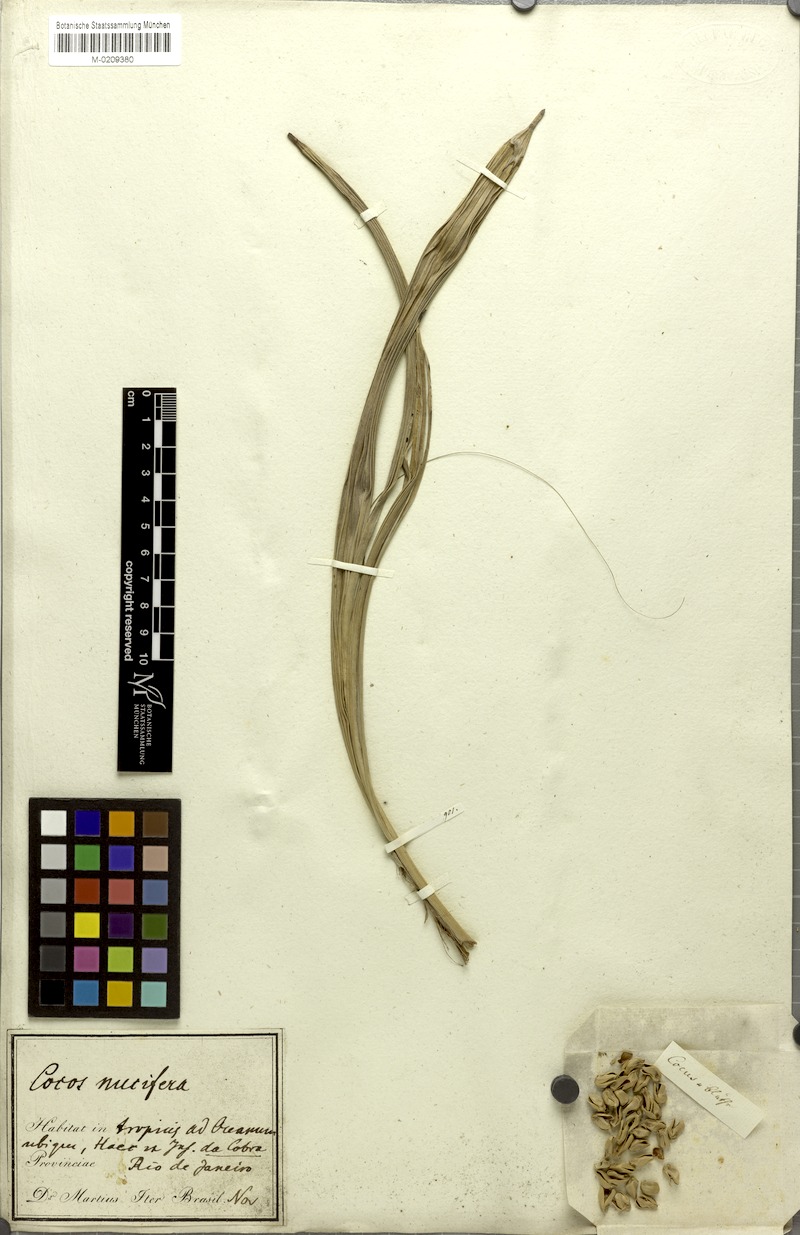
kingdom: Plantae
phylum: Tracheophyta
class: Liliopsida
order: Arecales
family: Arecaceae
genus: Cocos
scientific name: Cocos nucifera
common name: Coconut palm
